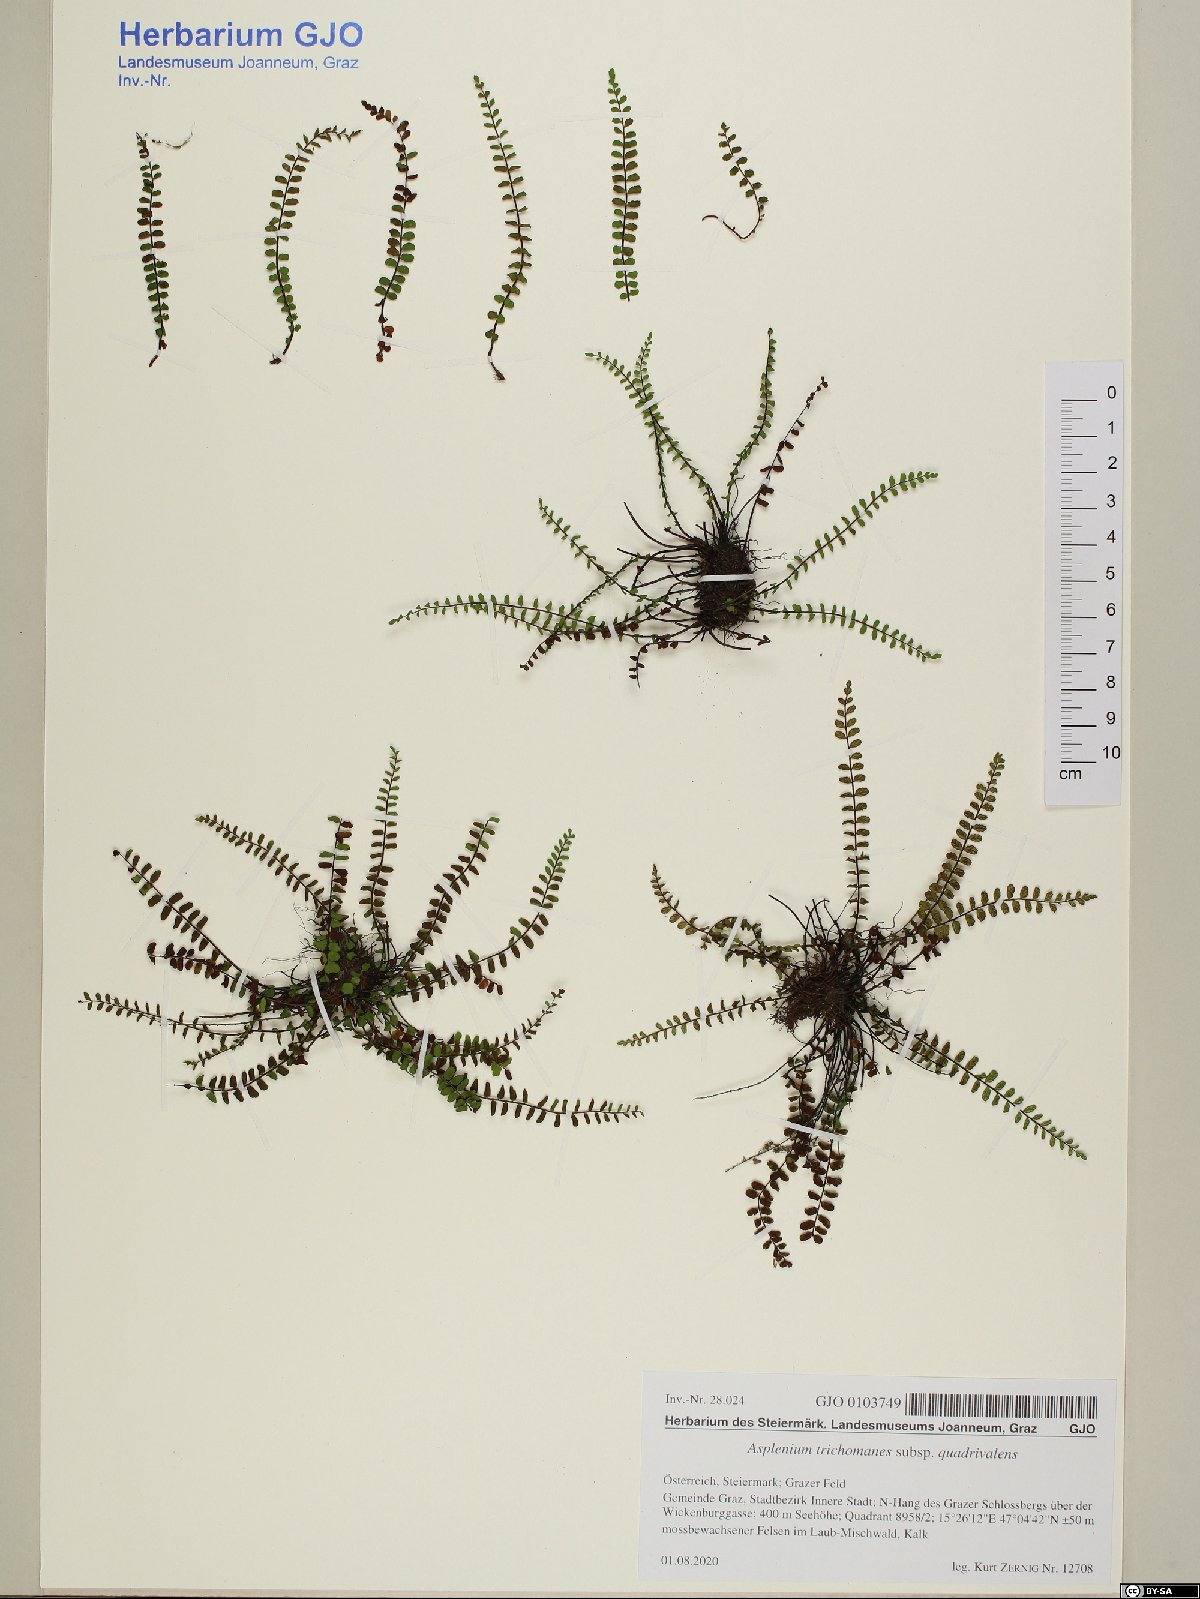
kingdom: Plantae
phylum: Tracheophyta
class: Polypodiopsida
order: Polypodiales
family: Aspleniaceae
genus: Asplenium
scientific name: Asplenium quadrivalens
